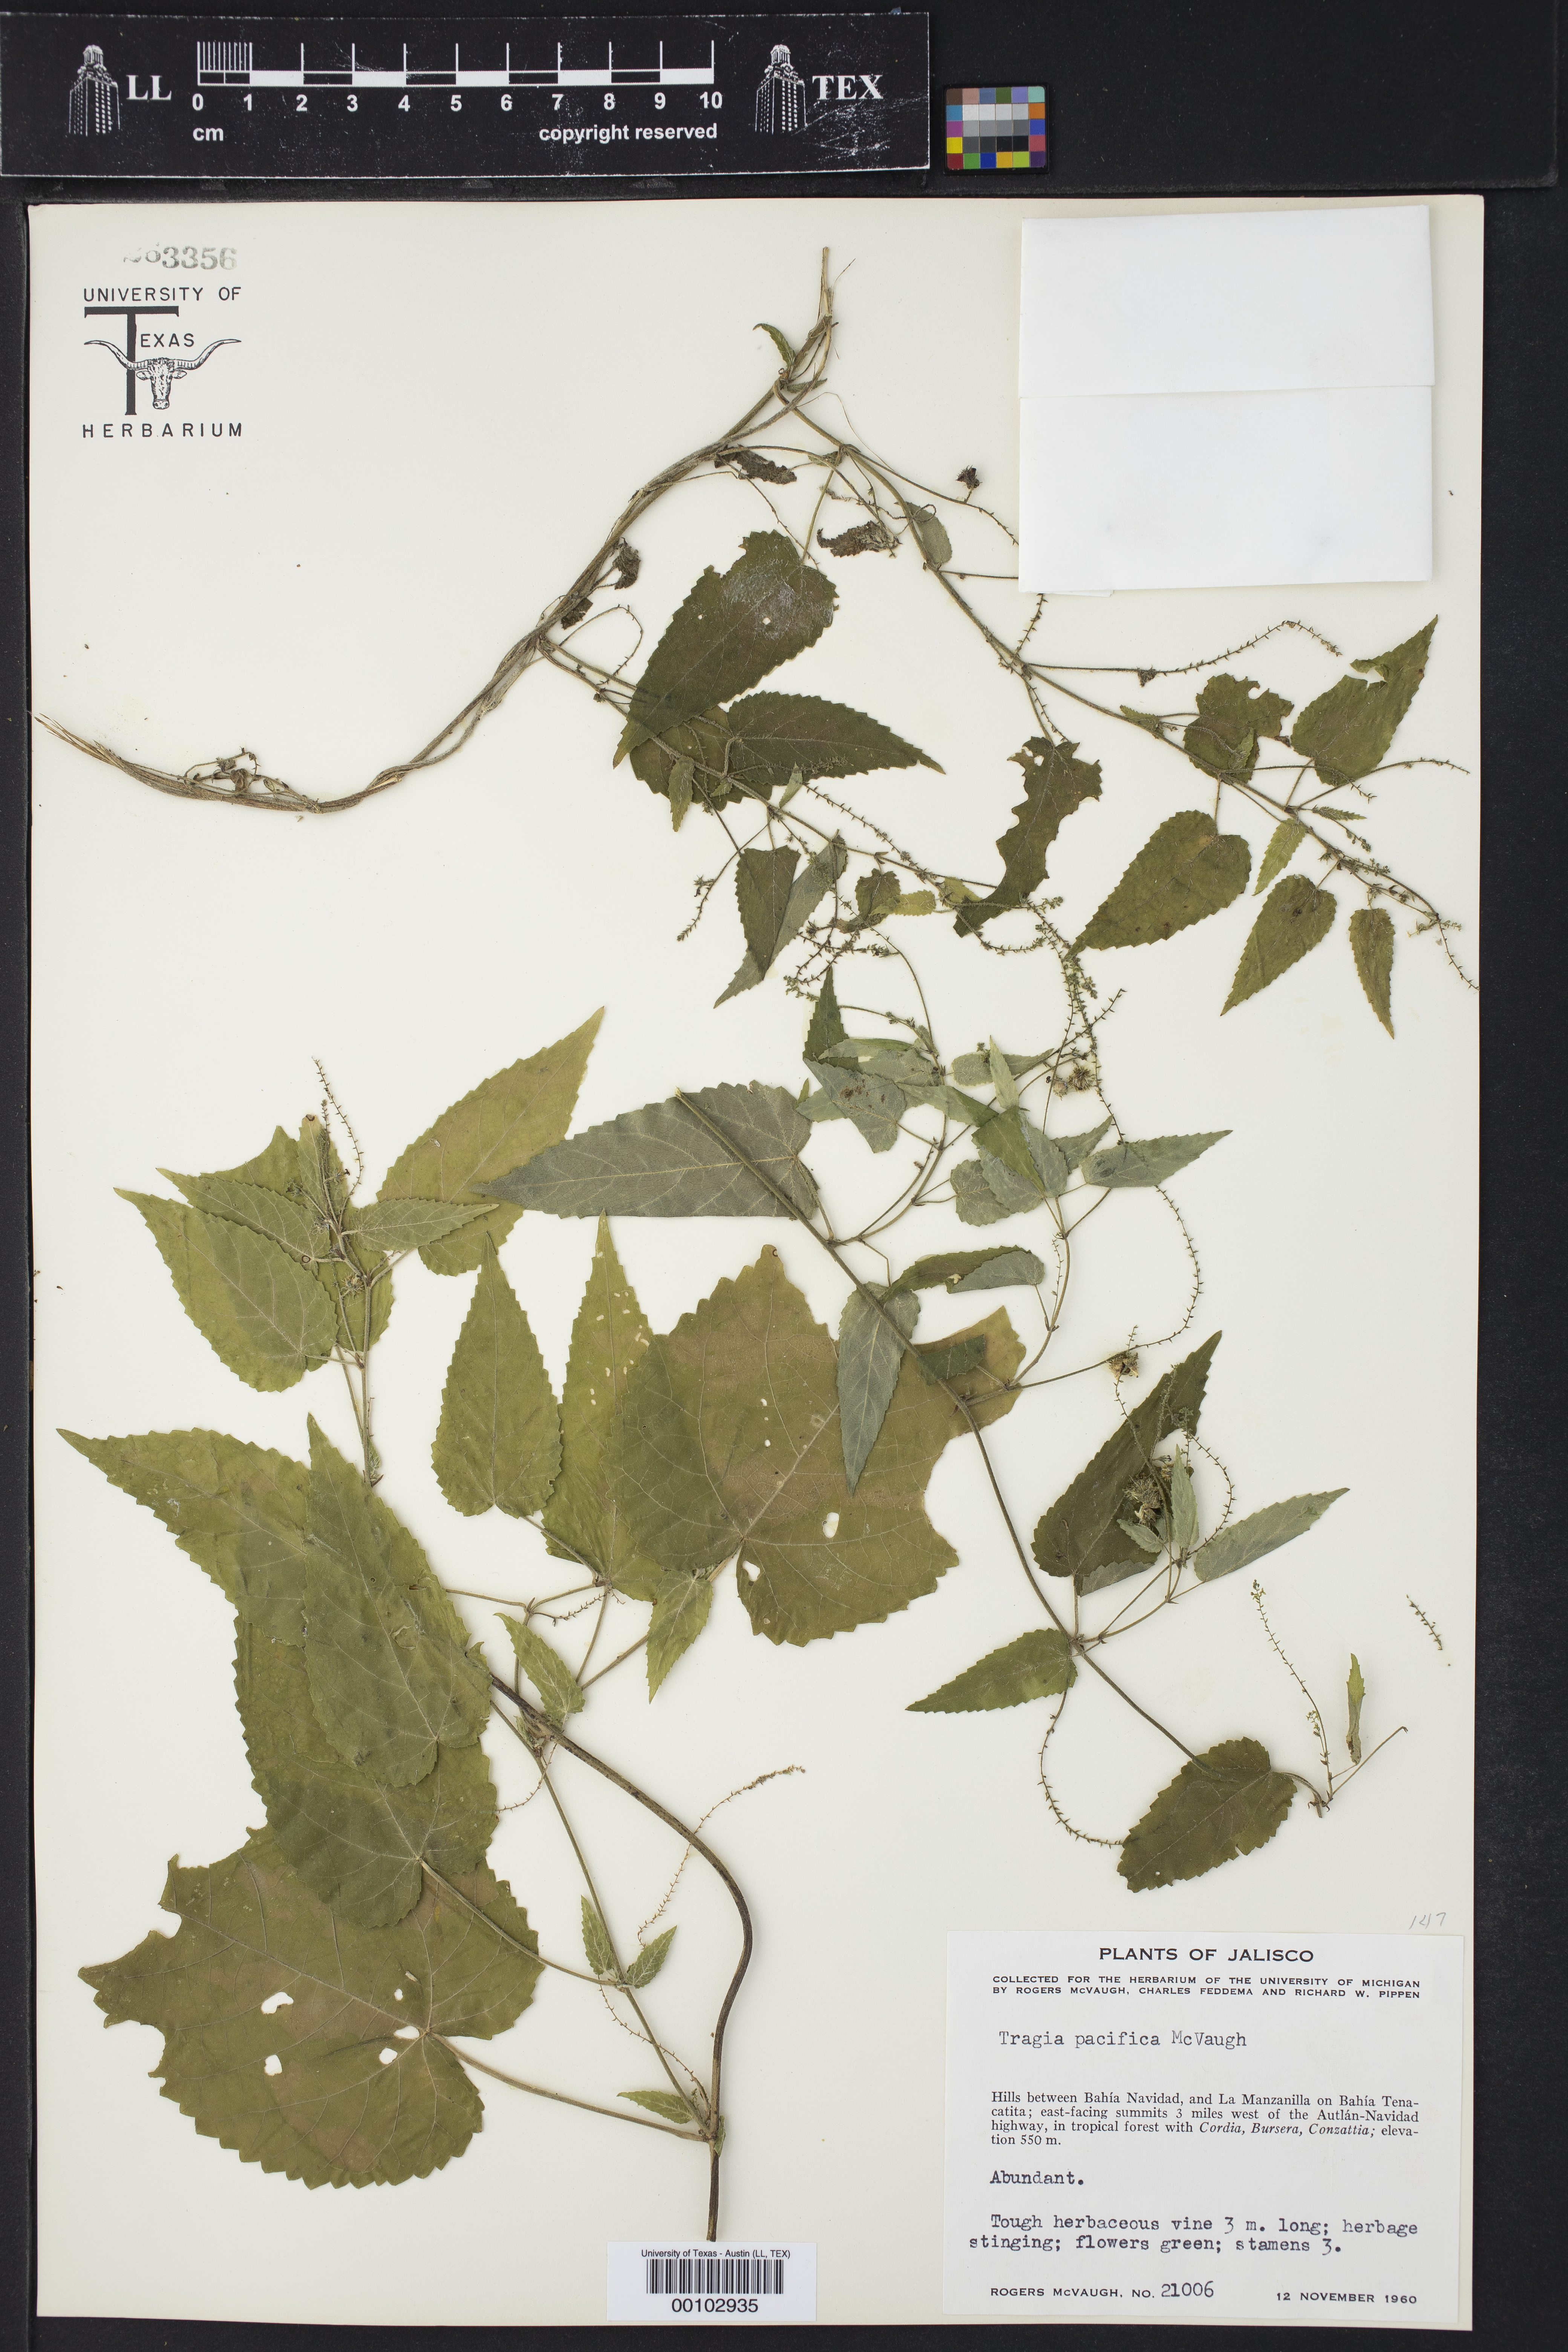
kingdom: Plantae
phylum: Tracheophyta
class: Magnoliopsida
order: Malpighiales
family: Euphorbiaceae
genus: Tragia
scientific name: Tragia pacifica
